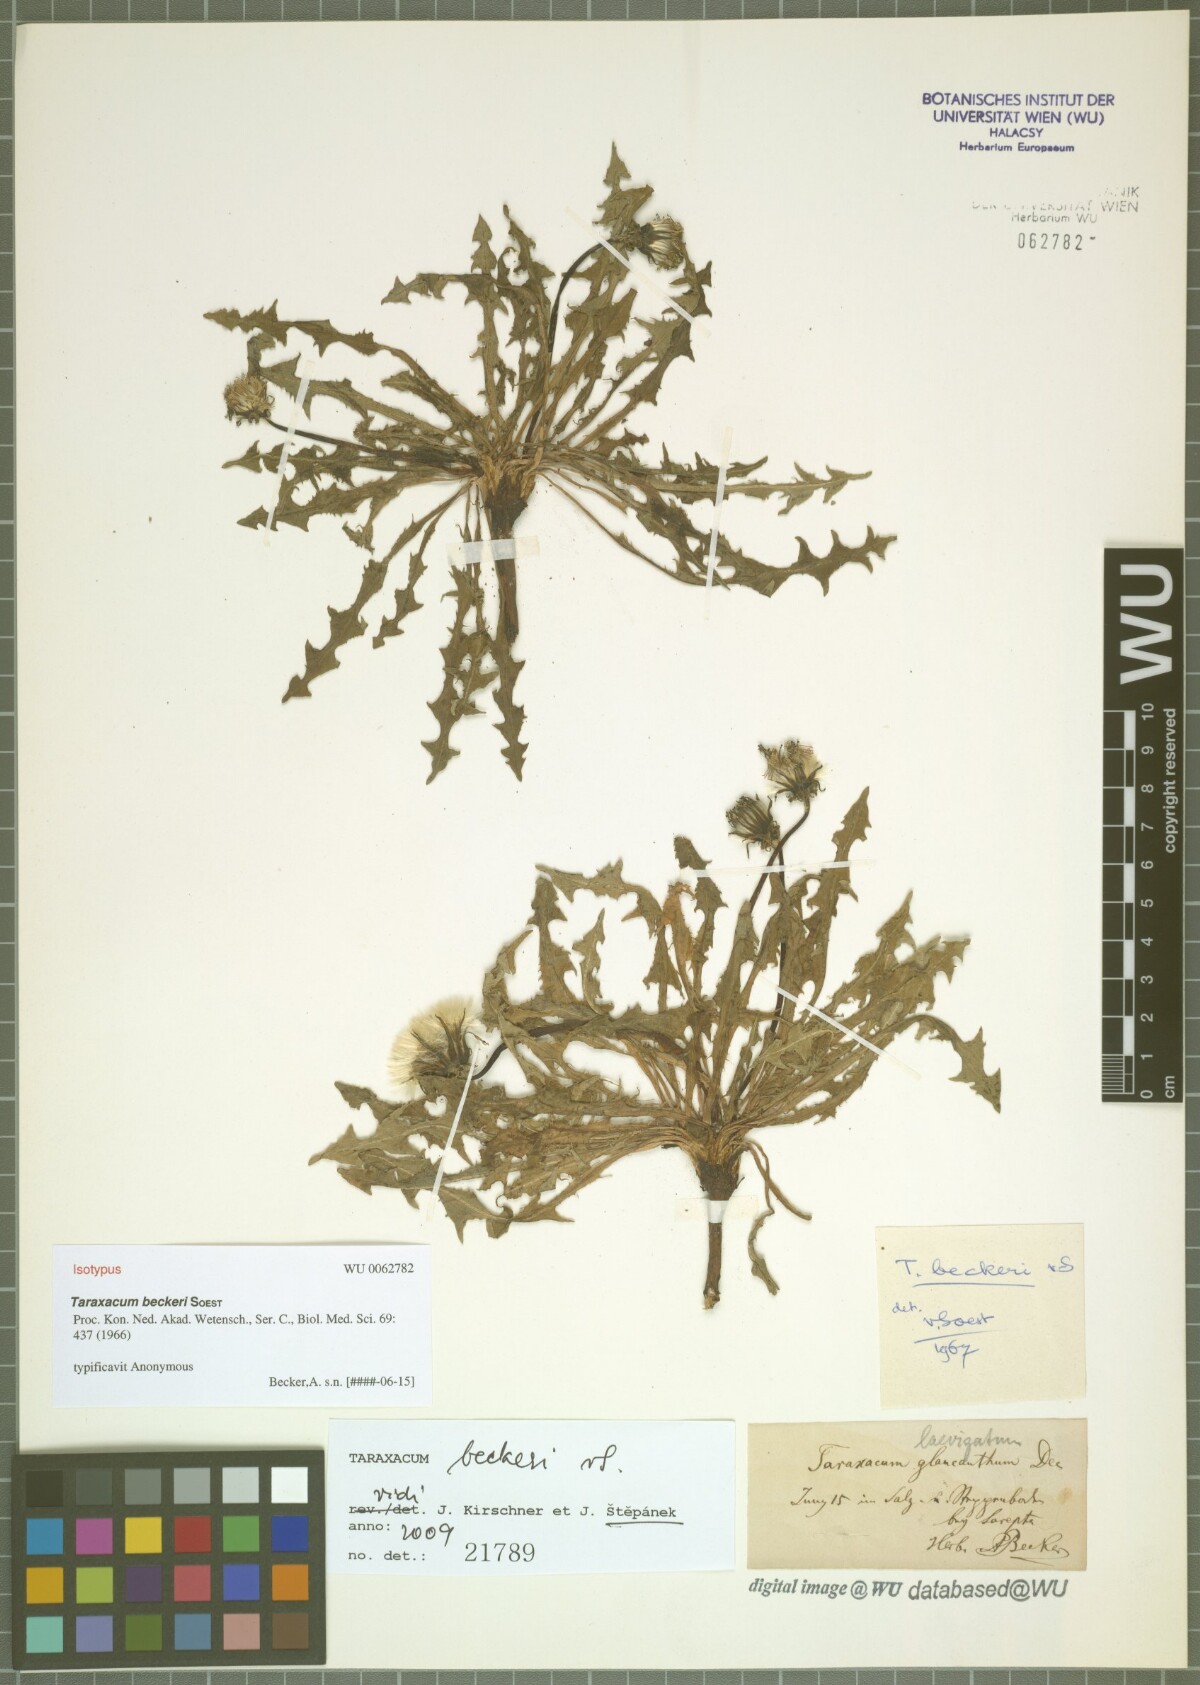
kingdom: Plantae
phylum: Tracheophyta
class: Magnoliopsida
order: Asterales
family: Asteraceae
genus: Taraxacum
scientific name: Taraxacum beckeri
